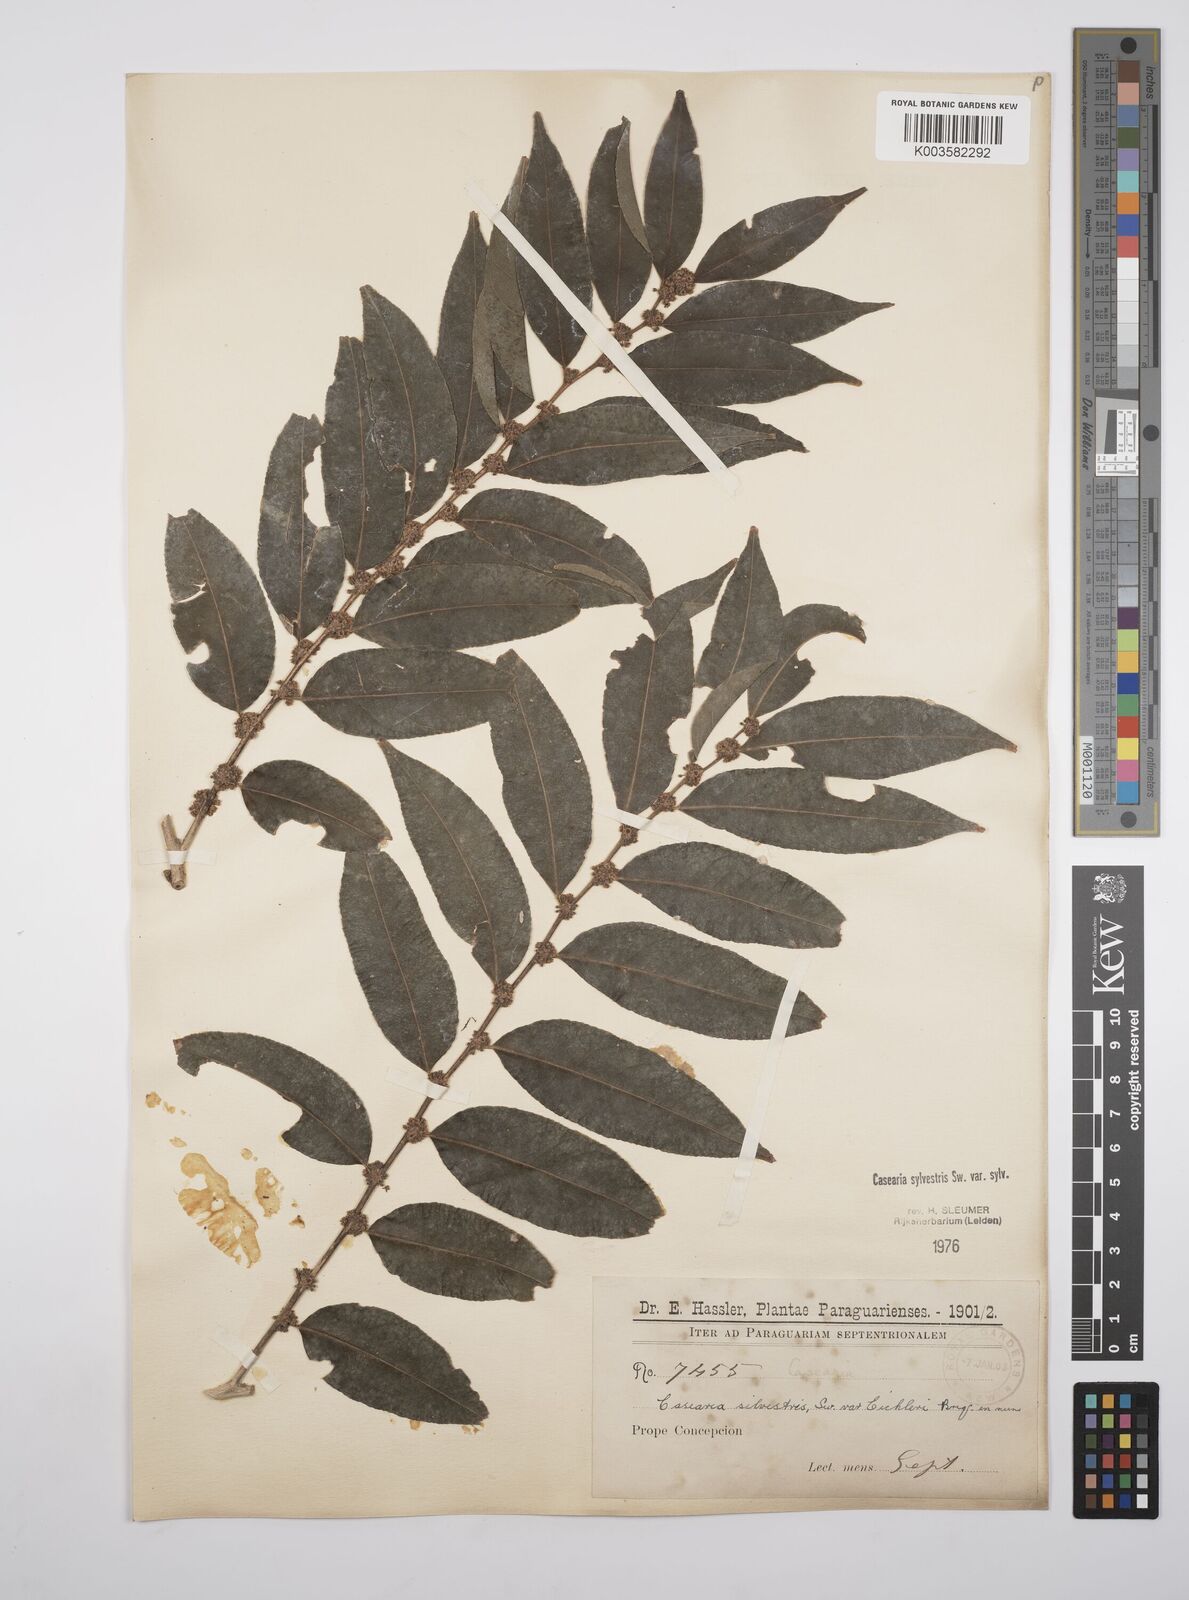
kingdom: Plantae
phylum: Tracheophyta
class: Magnoliopsida
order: Malpighiales
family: Salicaceae
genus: Casearia
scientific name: Casearia sylvestris
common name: Wild sage
